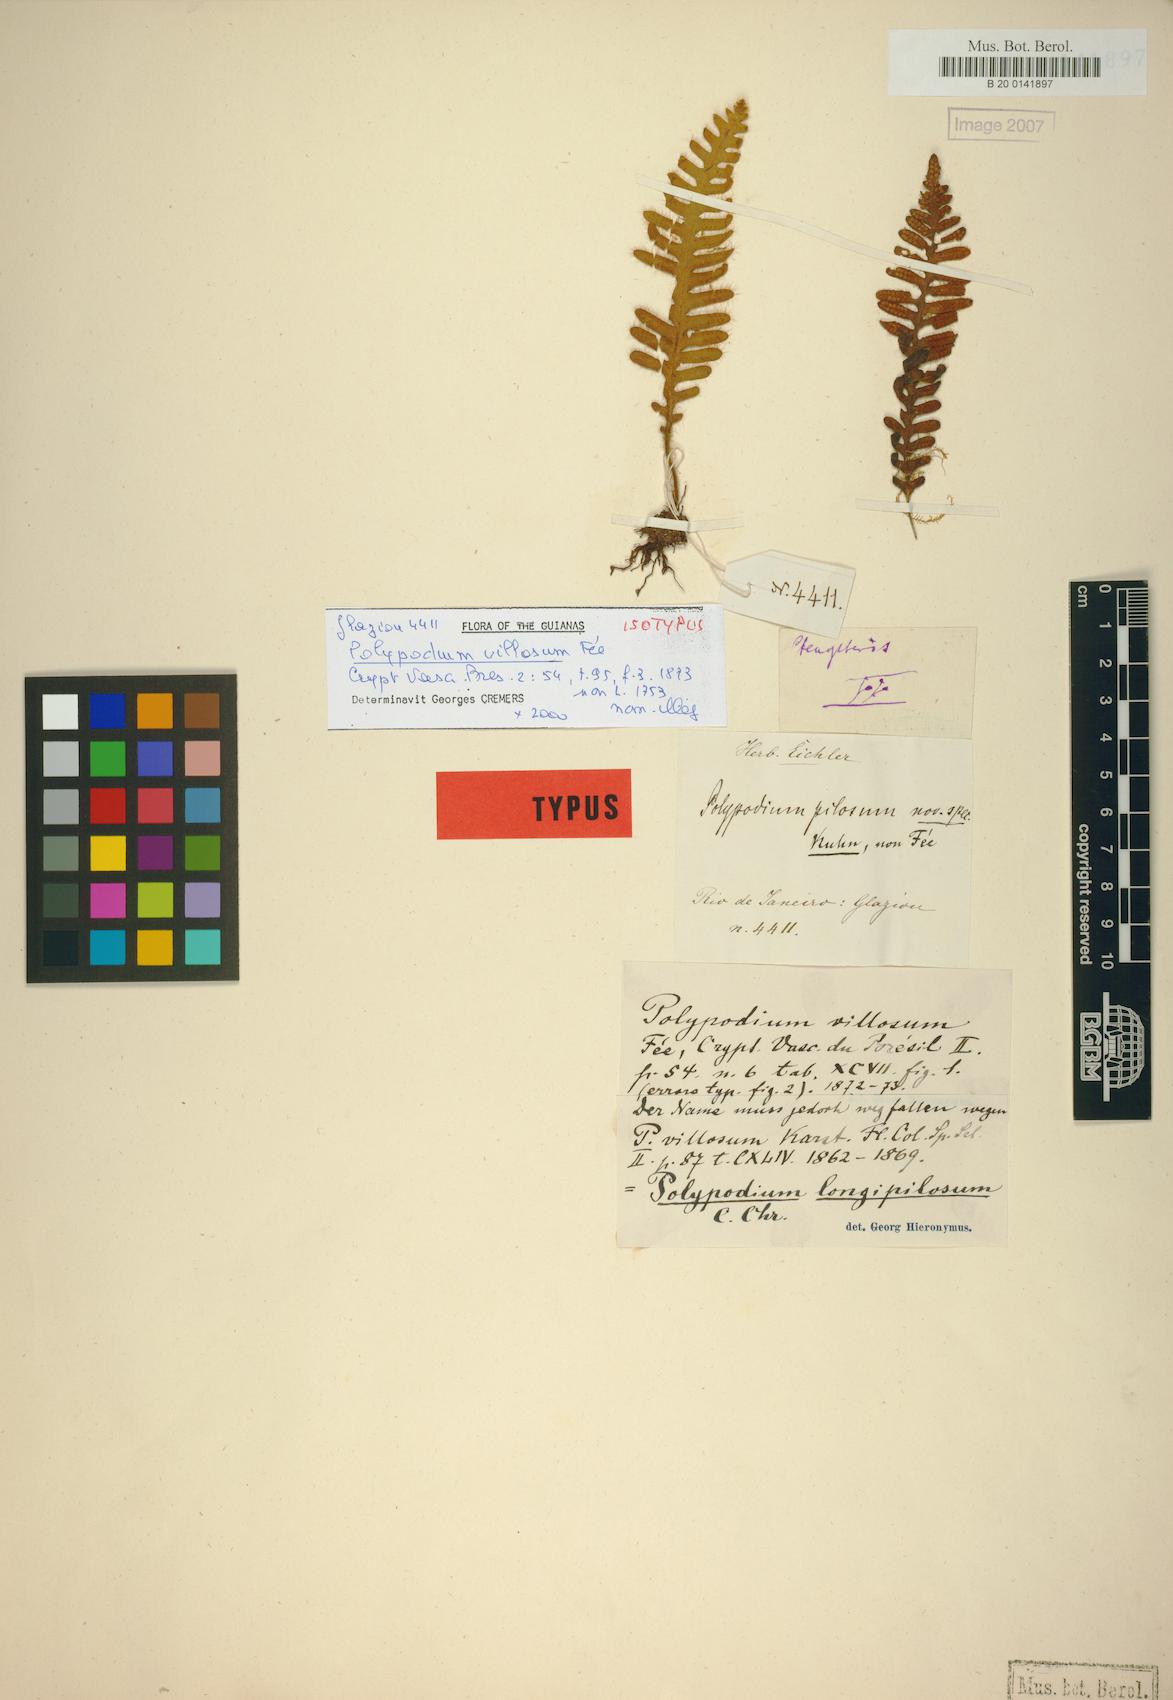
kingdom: Plantae
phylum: Tracheophyta
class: Polypodiopsida
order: Polypodiales
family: Polypodiaceae
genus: Enterosora
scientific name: Enterosora longipilosa
